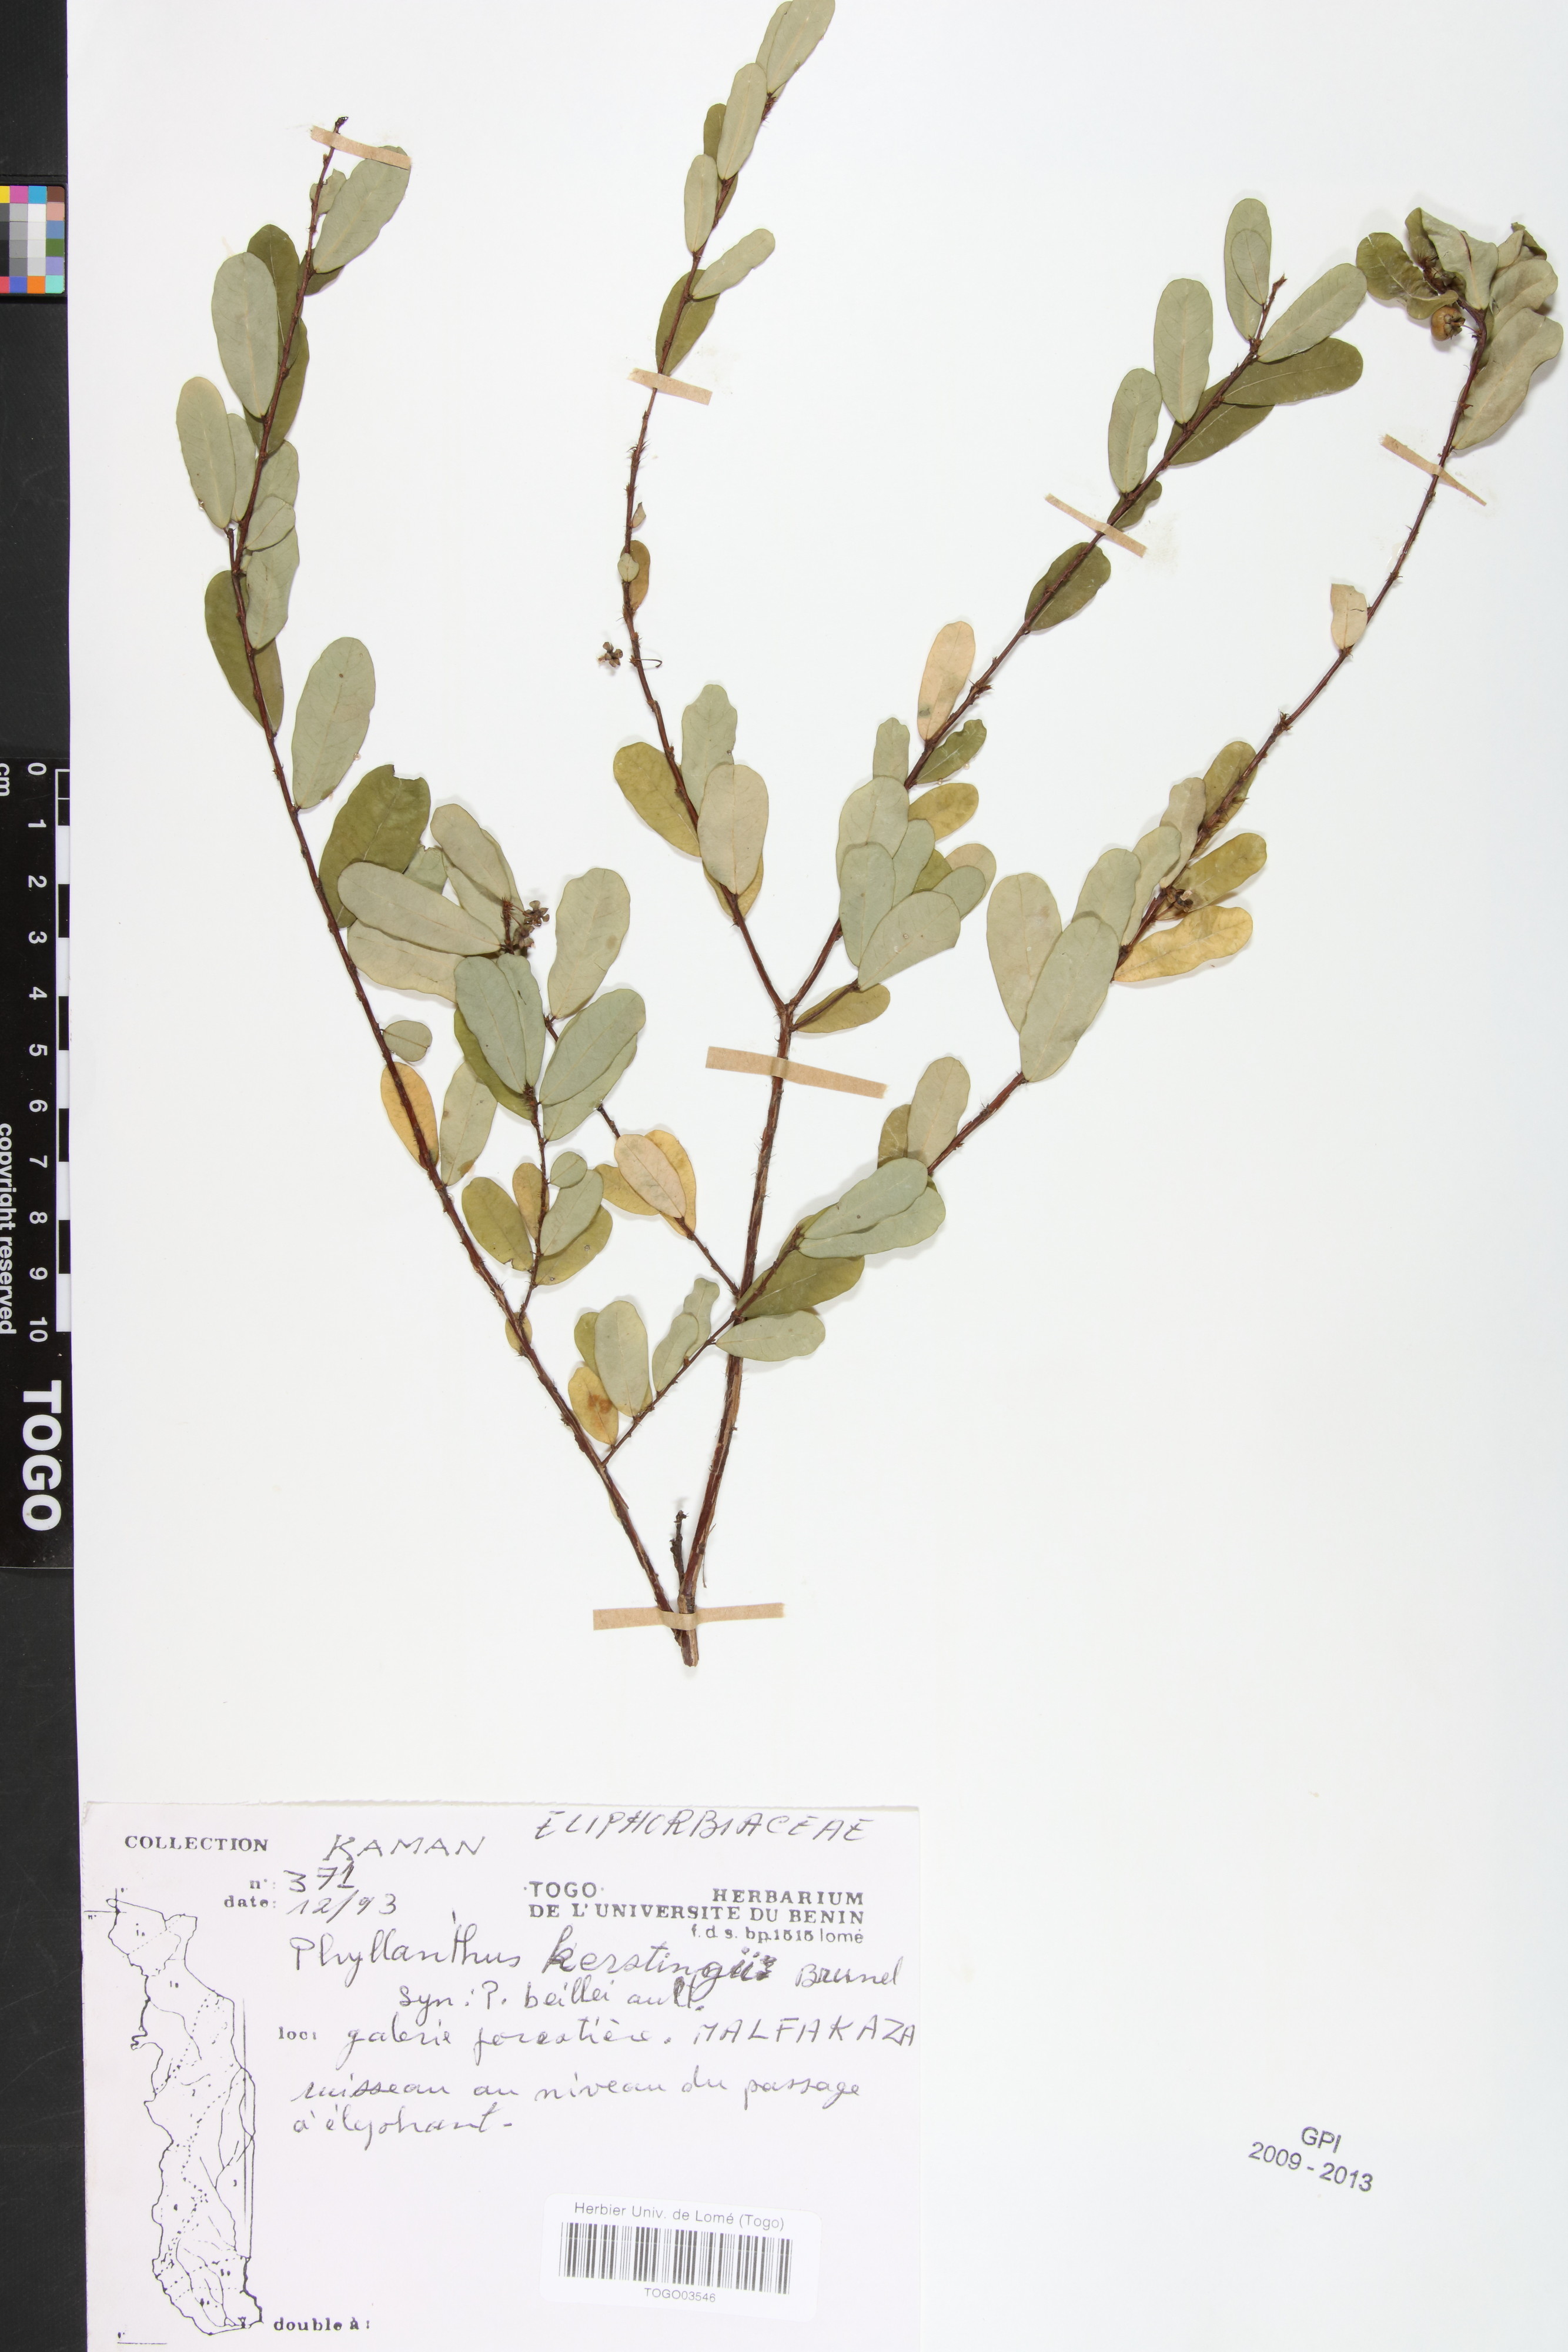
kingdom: Plantae
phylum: Tracheophyta
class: Magnoliopsida
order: Malpighiales
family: Phyllanthaceae
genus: Phyllanthus
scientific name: Phyllanthus kerstingii
